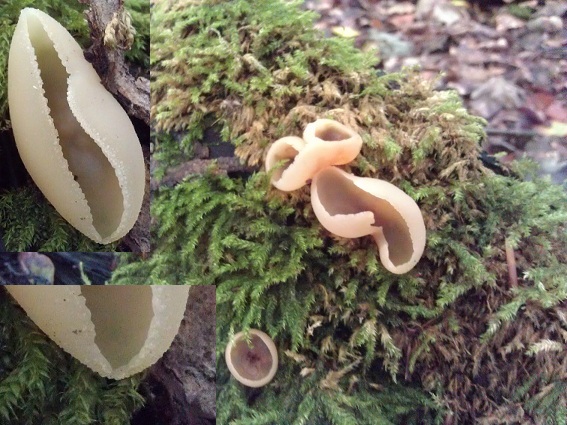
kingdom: Fungi
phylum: Ascomycota
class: Pezizomycetes
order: Pezizales
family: Pezizaceae
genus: Peziza
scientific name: Peziza varia
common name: Ved-bægersvamp
